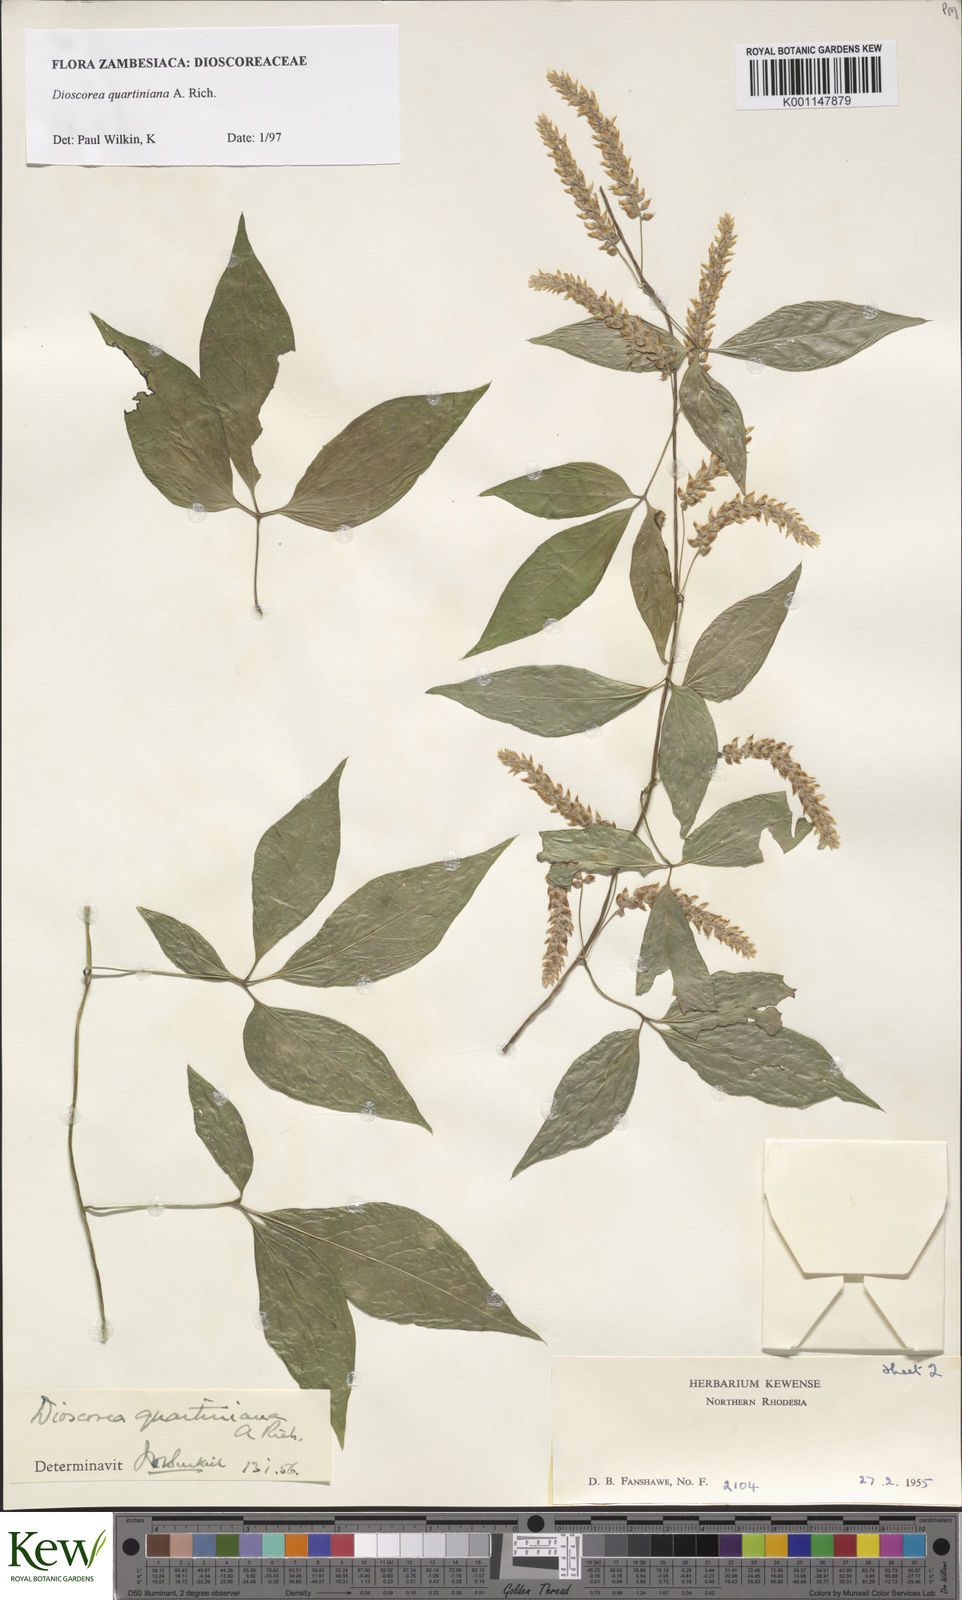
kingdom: Plantae
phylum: Tracheophyta
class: Liliopsida
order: Dioscoreales
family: Dioscoreaceae
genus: Dioscorea
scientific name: Dioscorea quartiniana
